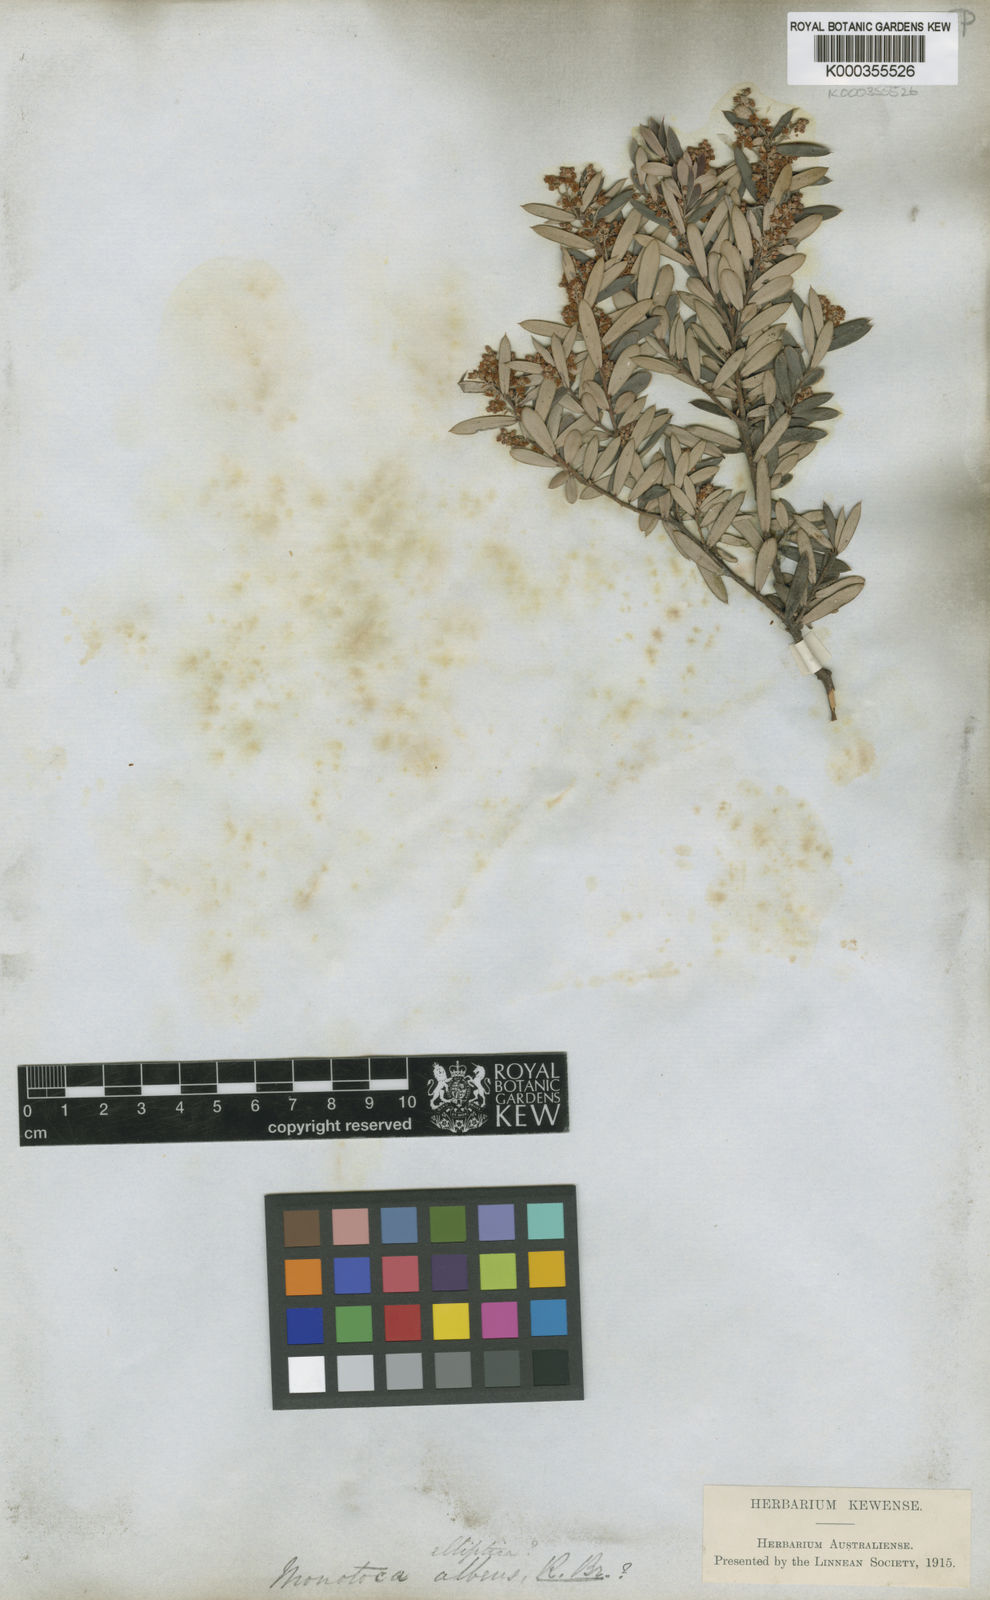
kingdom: Plantae
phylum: Tracheophyta
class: Magnoliopsida
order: Ericales
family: Ericaceae
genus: Monotoca
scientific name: Monotoca elliptica
